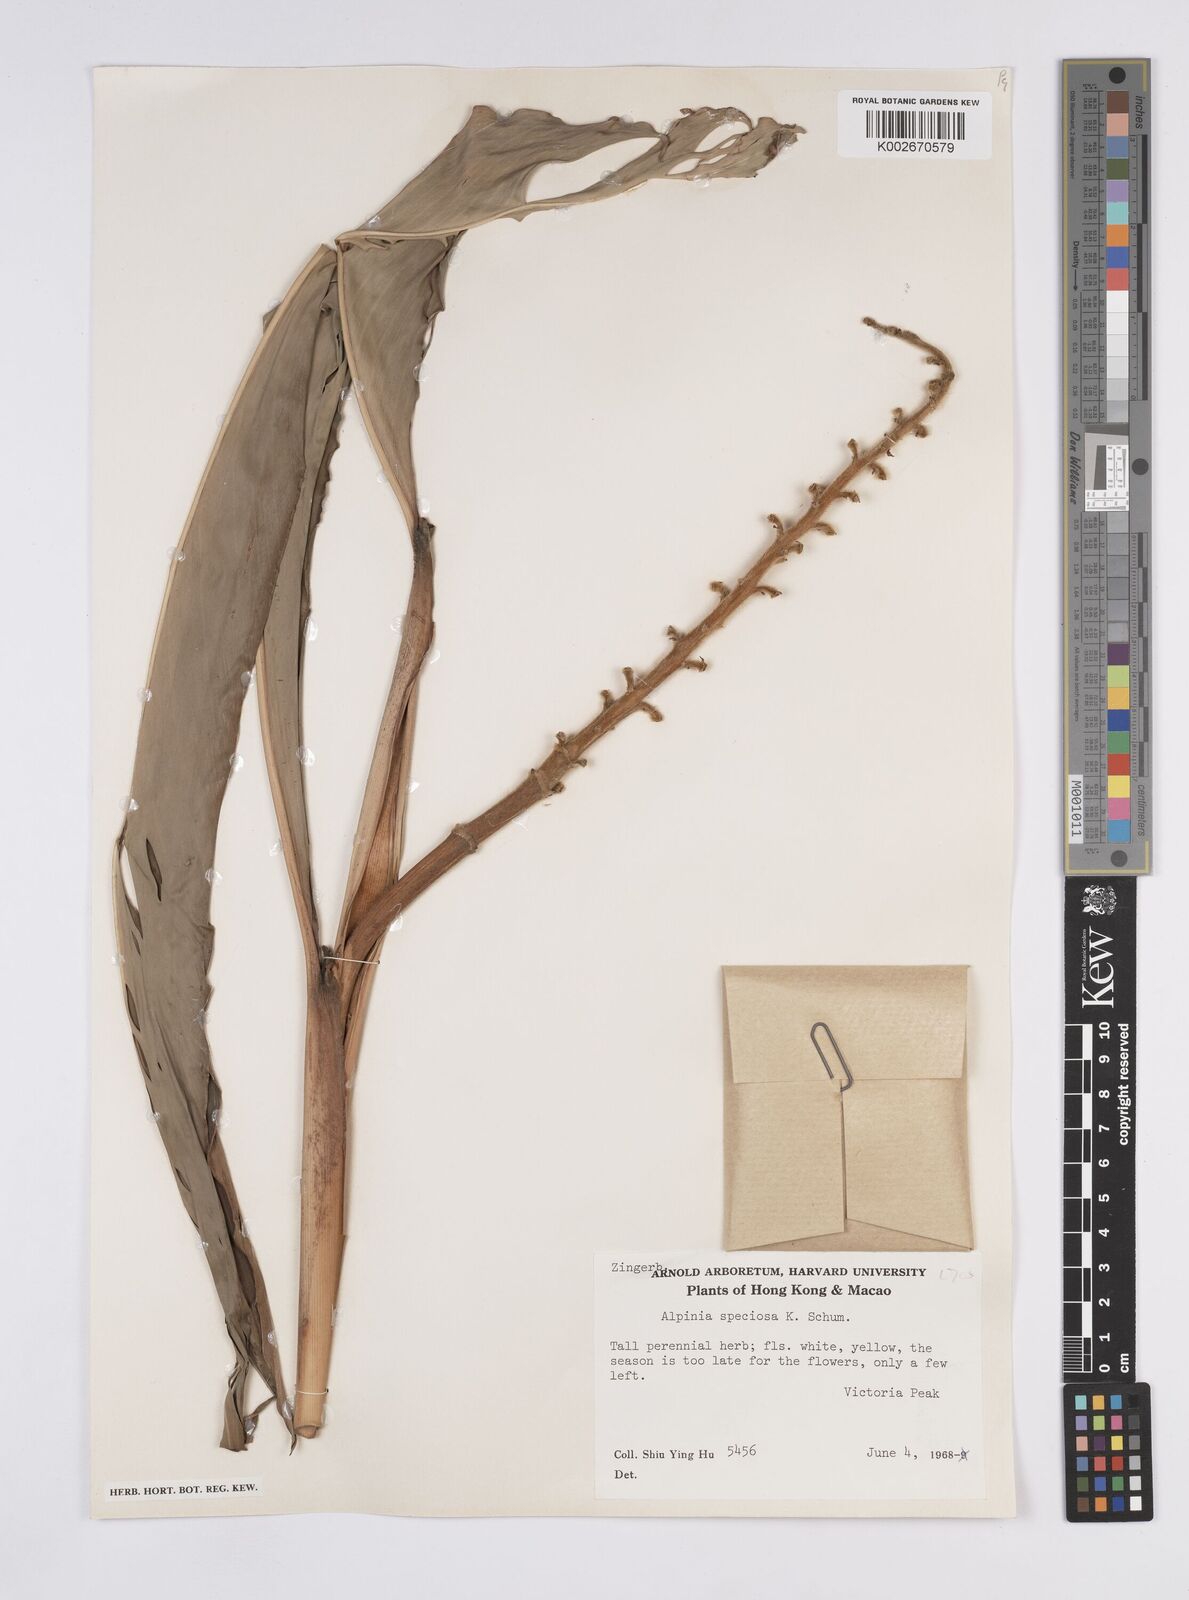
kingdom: Plantae
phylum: Tracheophyta
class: Liliopsida
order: Zingiberales
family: Zingiberaceae
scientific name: Zingiberaceae
